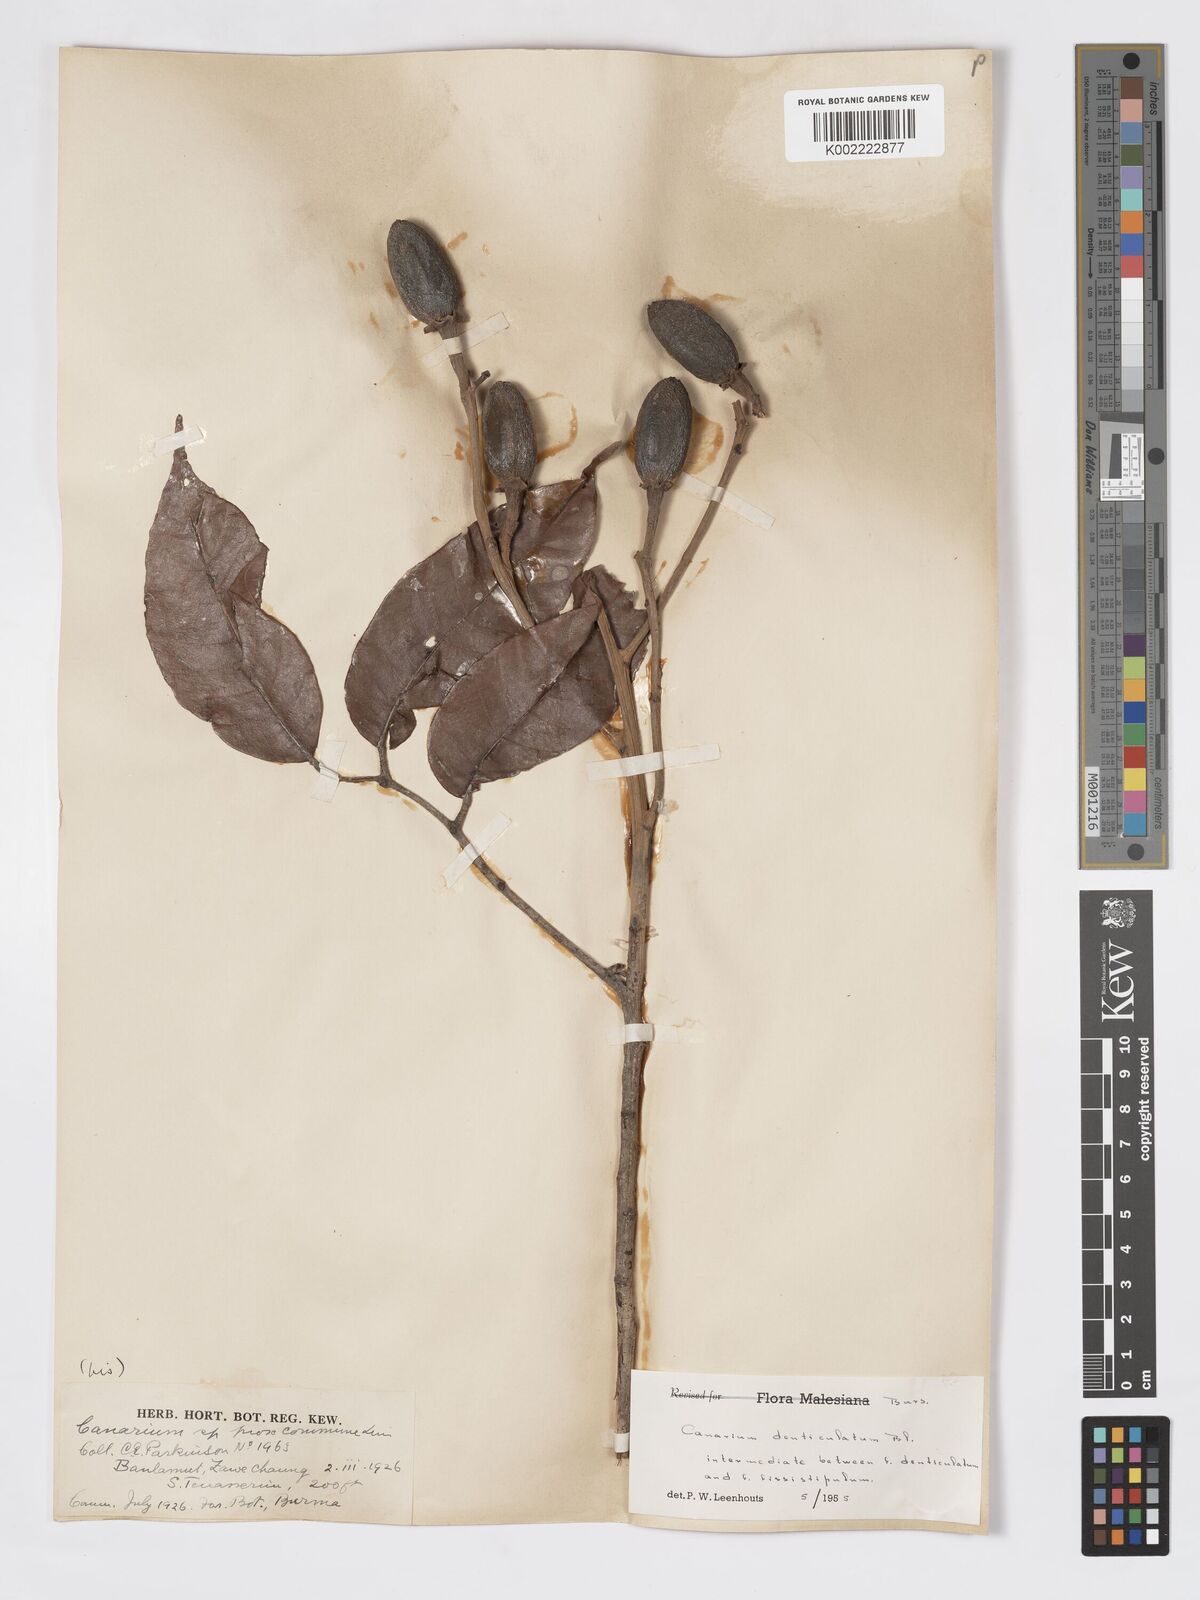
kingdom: Plantae
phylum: Tracheophyta
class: Magnoliopsida
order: Sapindales
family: Burseraceae
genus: Canarium
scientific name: Canarium denticulatum
